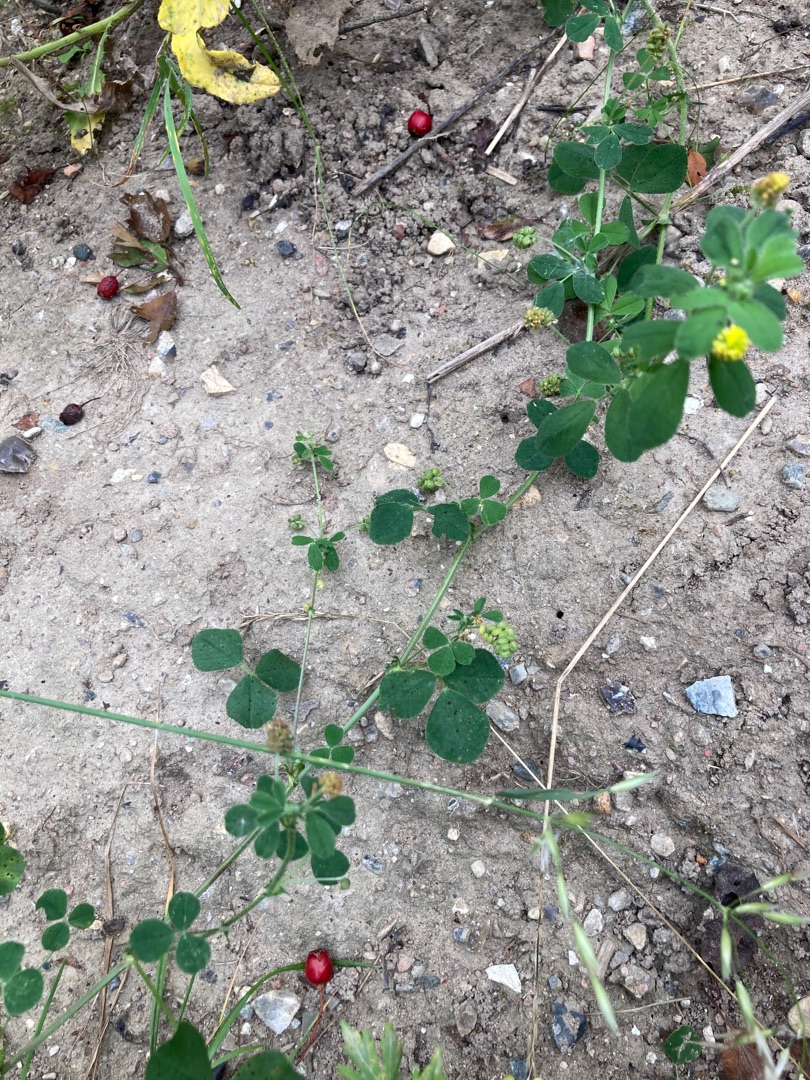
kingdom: Plantae
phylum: Tracheophyta
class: Magnoliopsida
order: Fabales
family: Fabaceae
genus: Medicago
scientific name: Medicago lupulina
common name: Humle-sneglebælg
